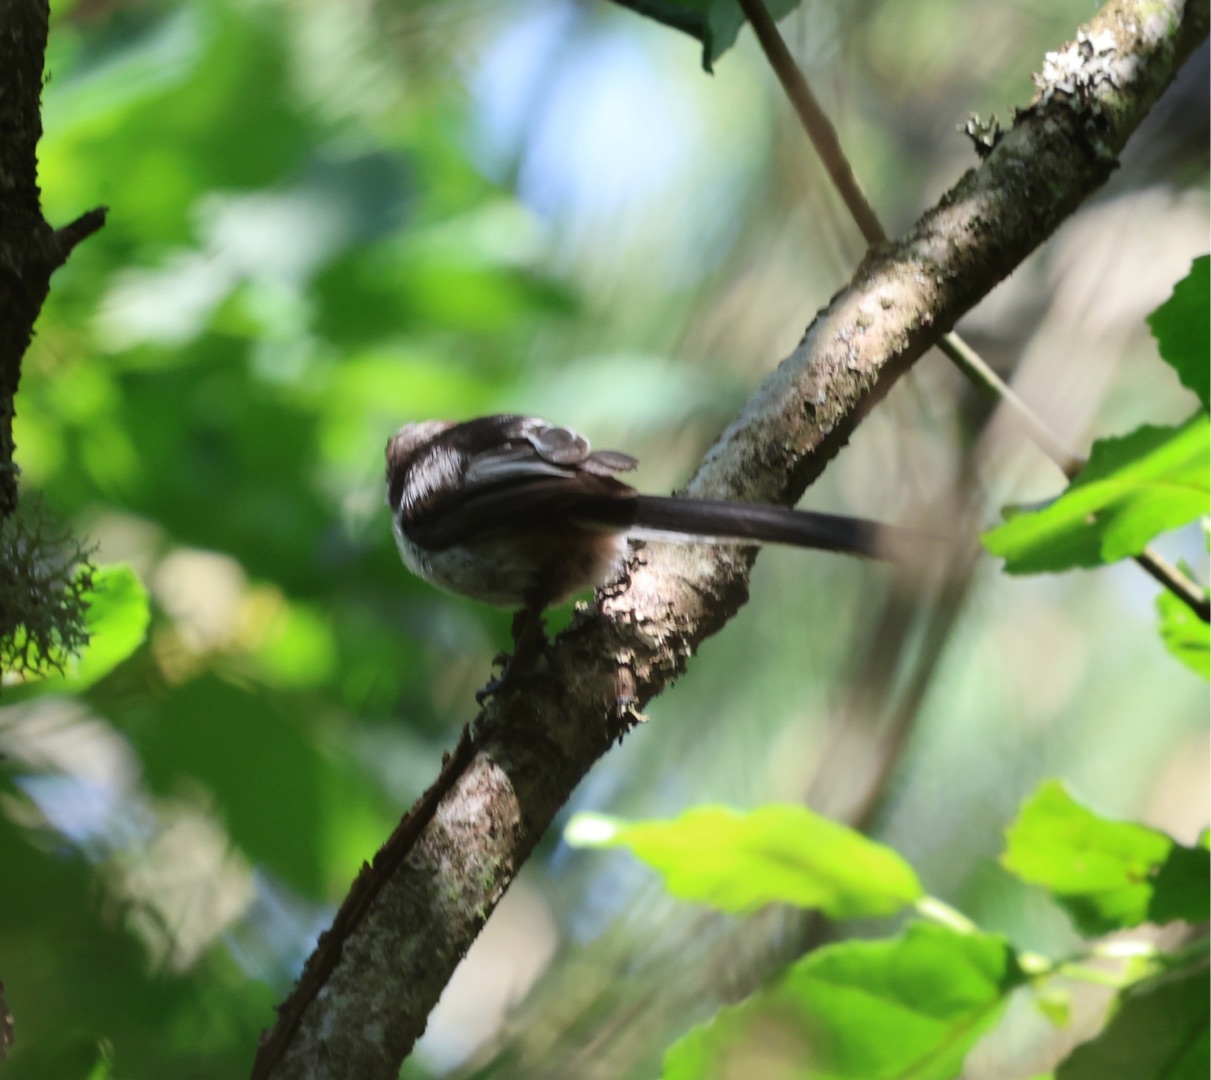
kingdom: Animalia
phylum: Chordata
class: Aves
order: Passeriformes
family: Aegithalidae
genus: Aegithalos
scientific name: Aegithalos caudatus
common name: Halemejse
